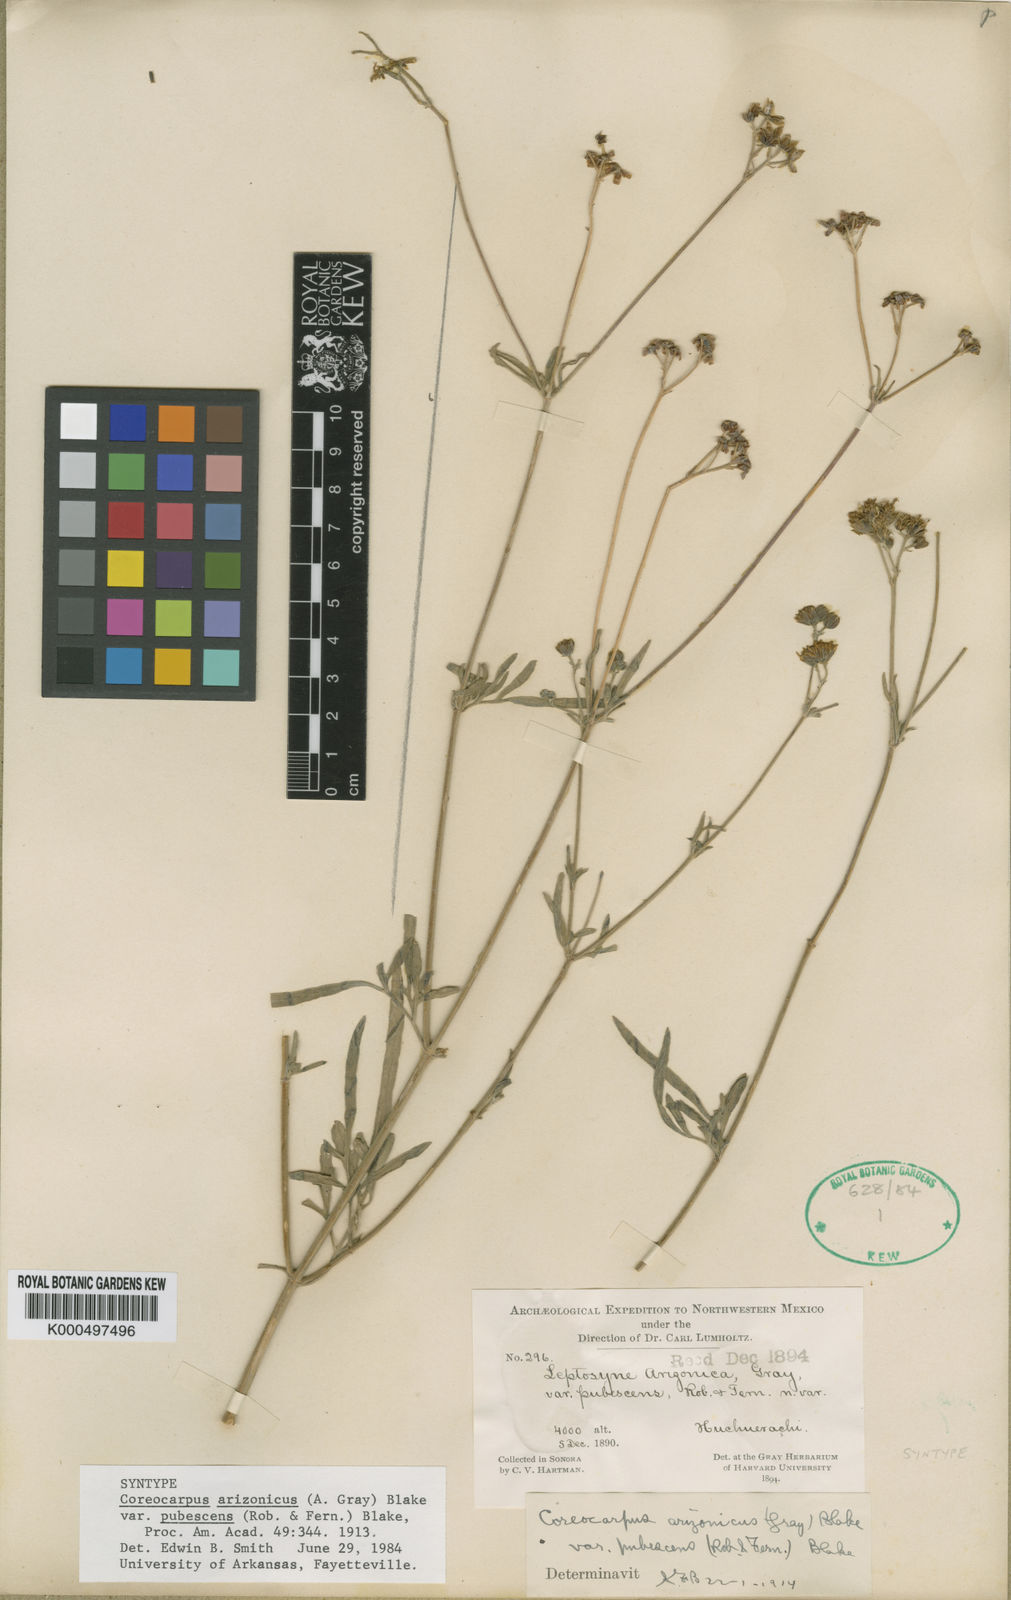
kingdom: Plantae
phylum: Tracheophyta
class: Magnoliopsida
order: Asterales
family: Asteraceae
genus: Coreocarpus
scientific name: Coreocarpus arizonicus
